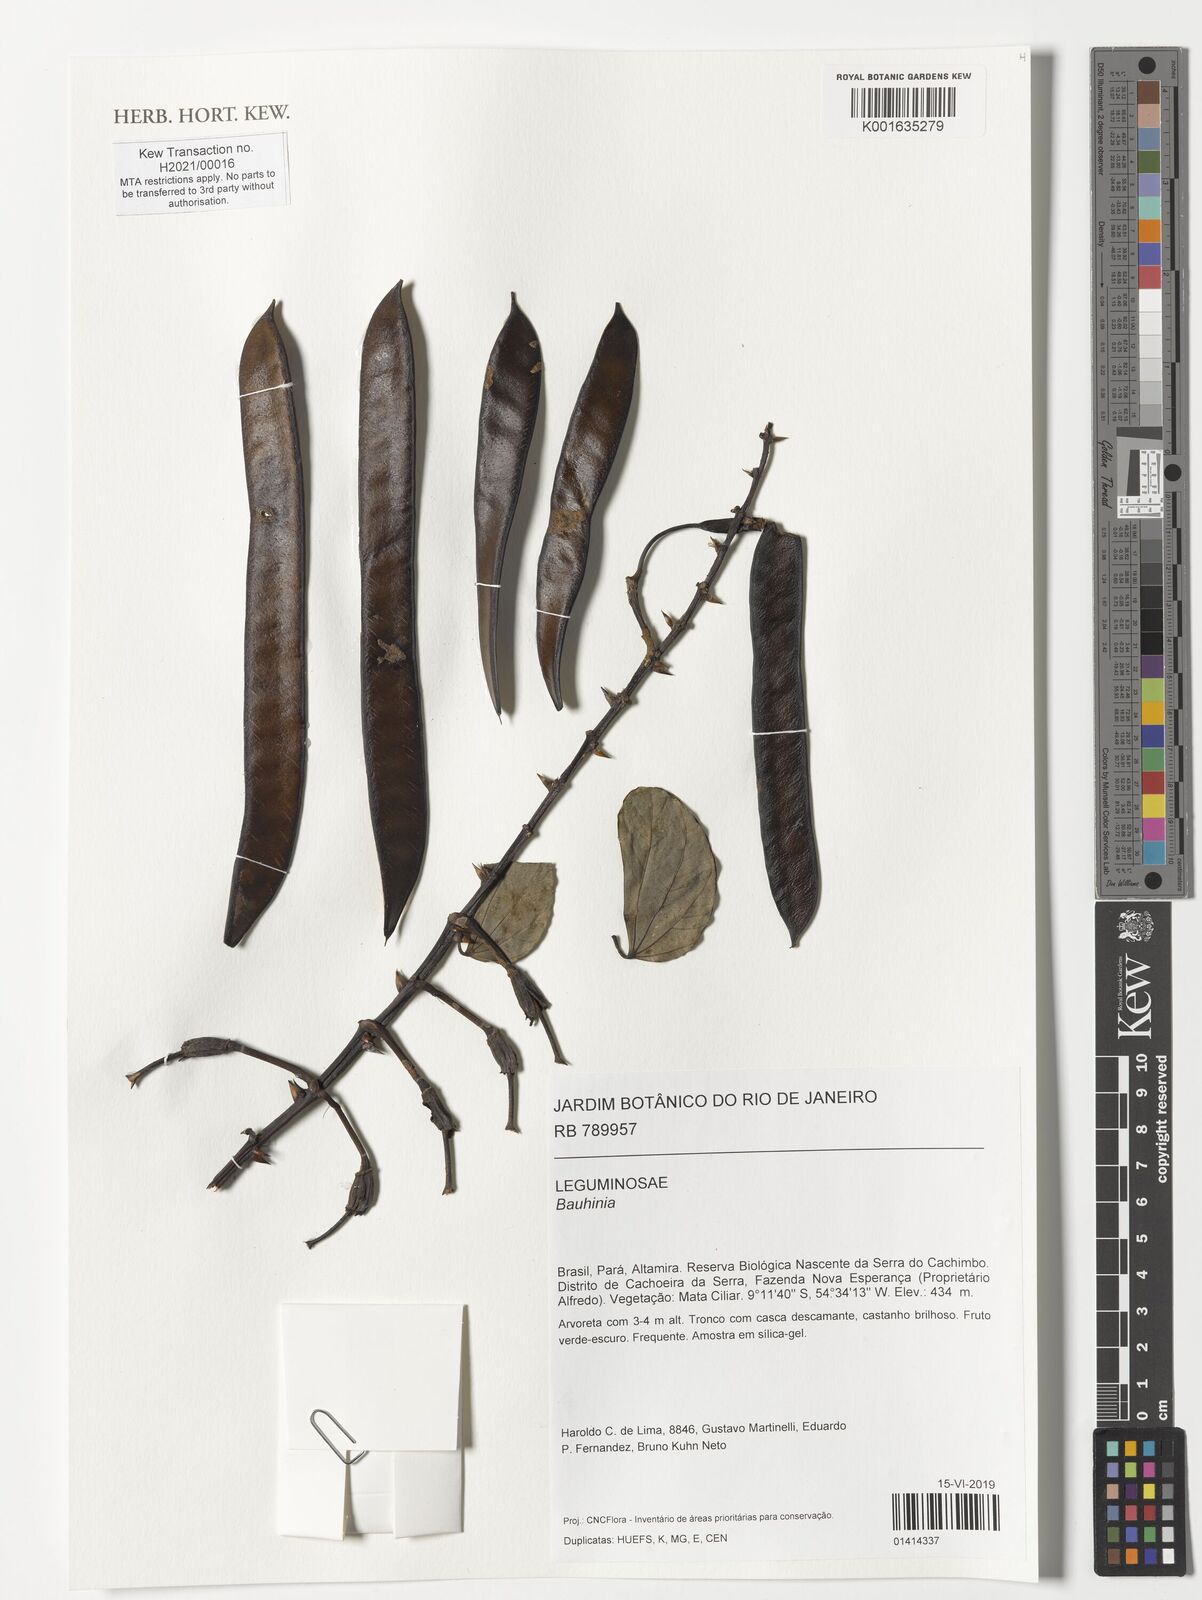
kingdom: Plantae
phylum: Tracheophyta
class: Magnoliopsida
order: Fabales
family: Fabaceae
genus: Bauhinia
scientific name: Bauhinia
